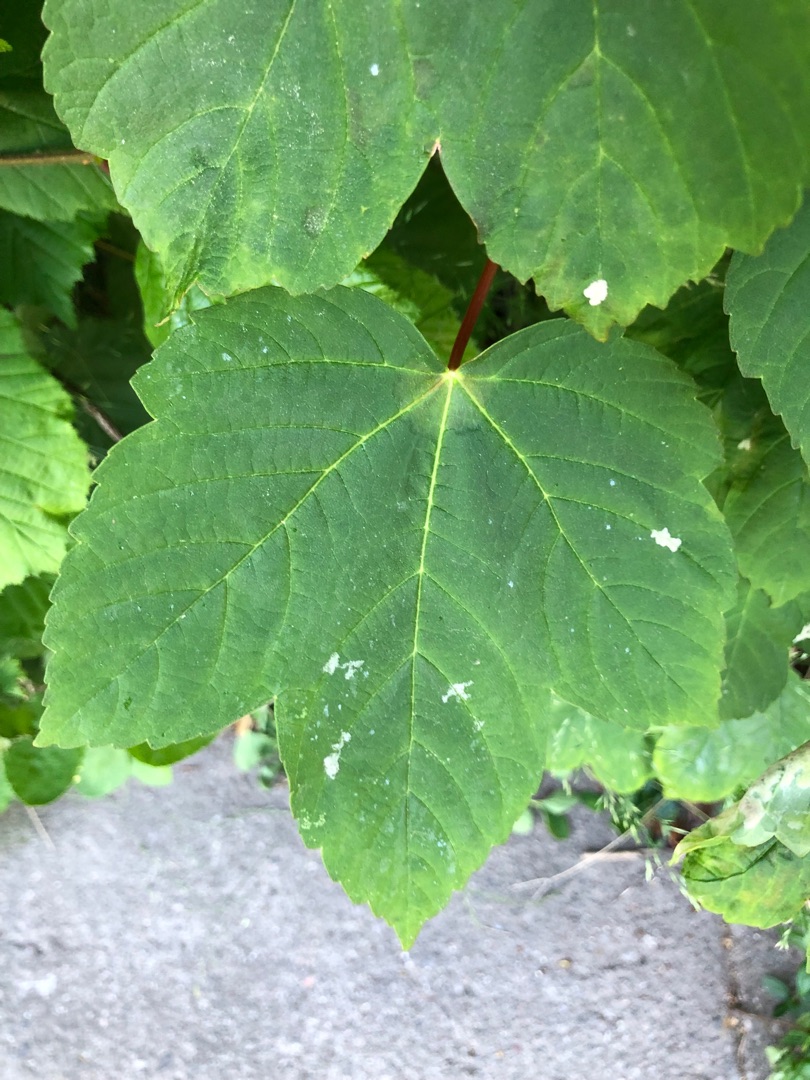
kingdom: Plantae
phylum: Tracheophyta
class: Magnoliopsida
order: Sapindales
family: Sapindaceae
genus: Acer
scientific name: Acer pseudoplatanus
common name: Ahorn
